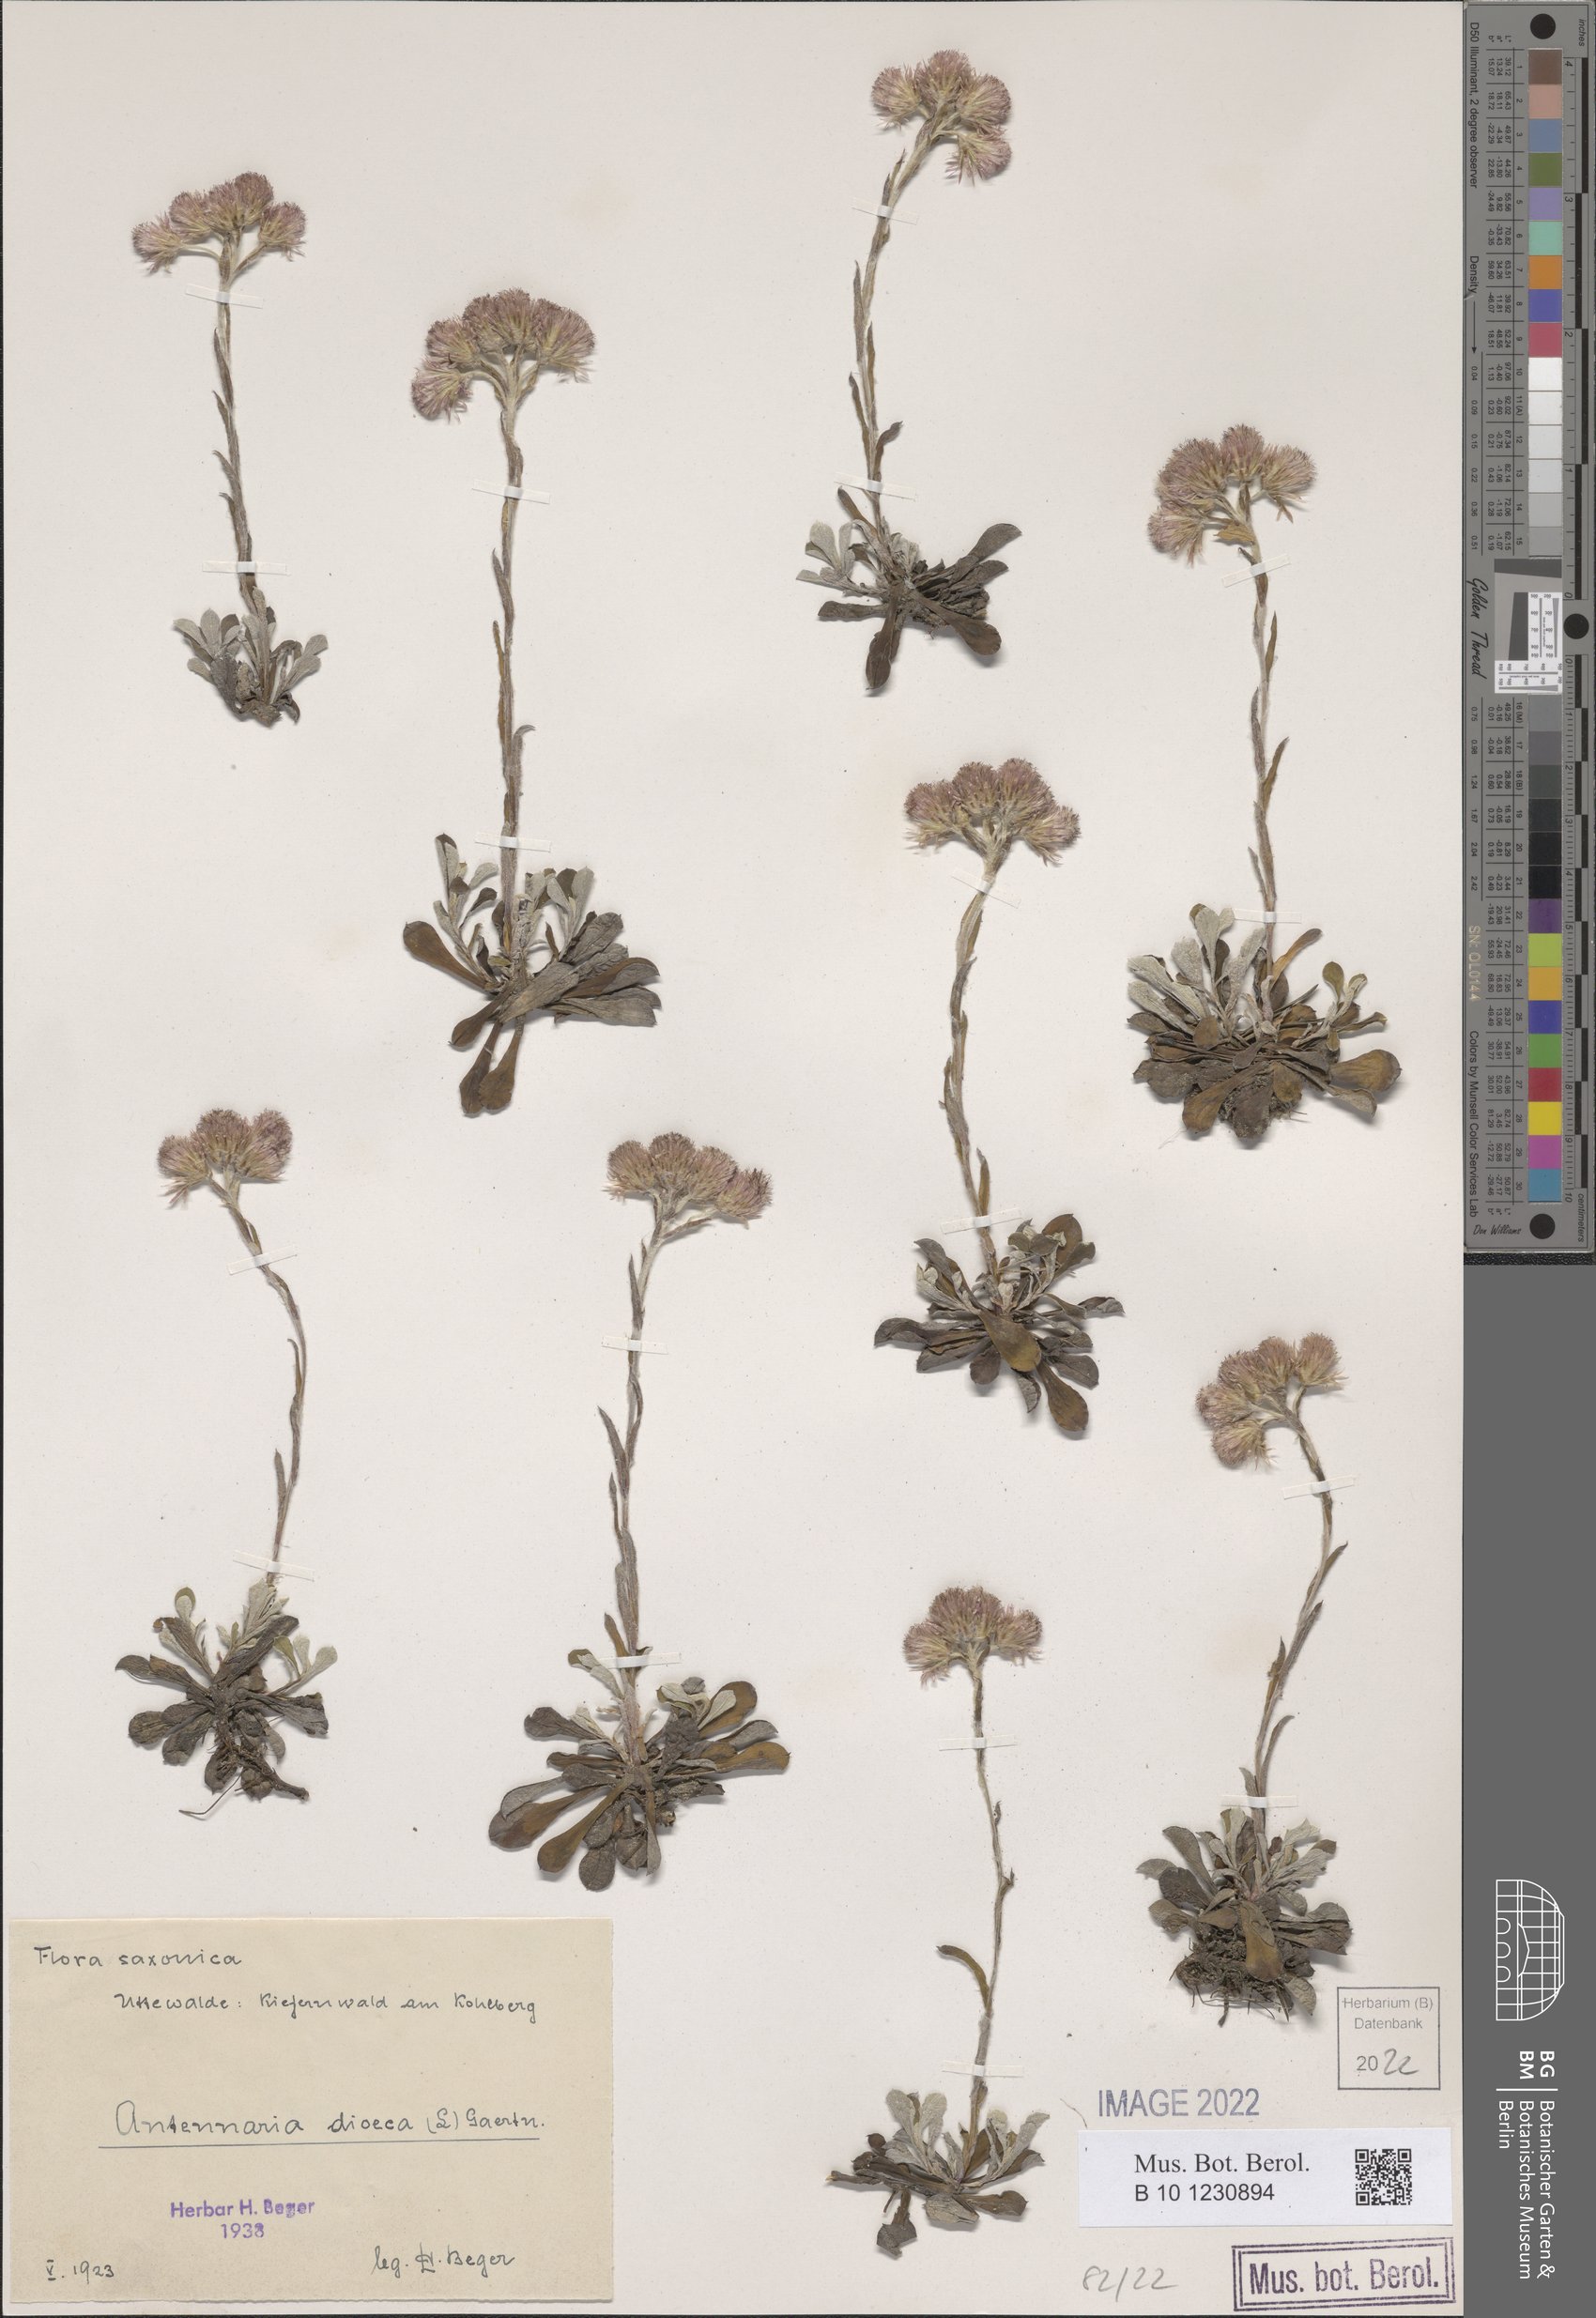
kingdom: Plantae
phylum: Tracheophyta
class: Magnoliopsida
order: Asterales
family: Asteraceae
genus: Antennaria
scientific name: Antennaria dioica
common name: Mountain everlasting
